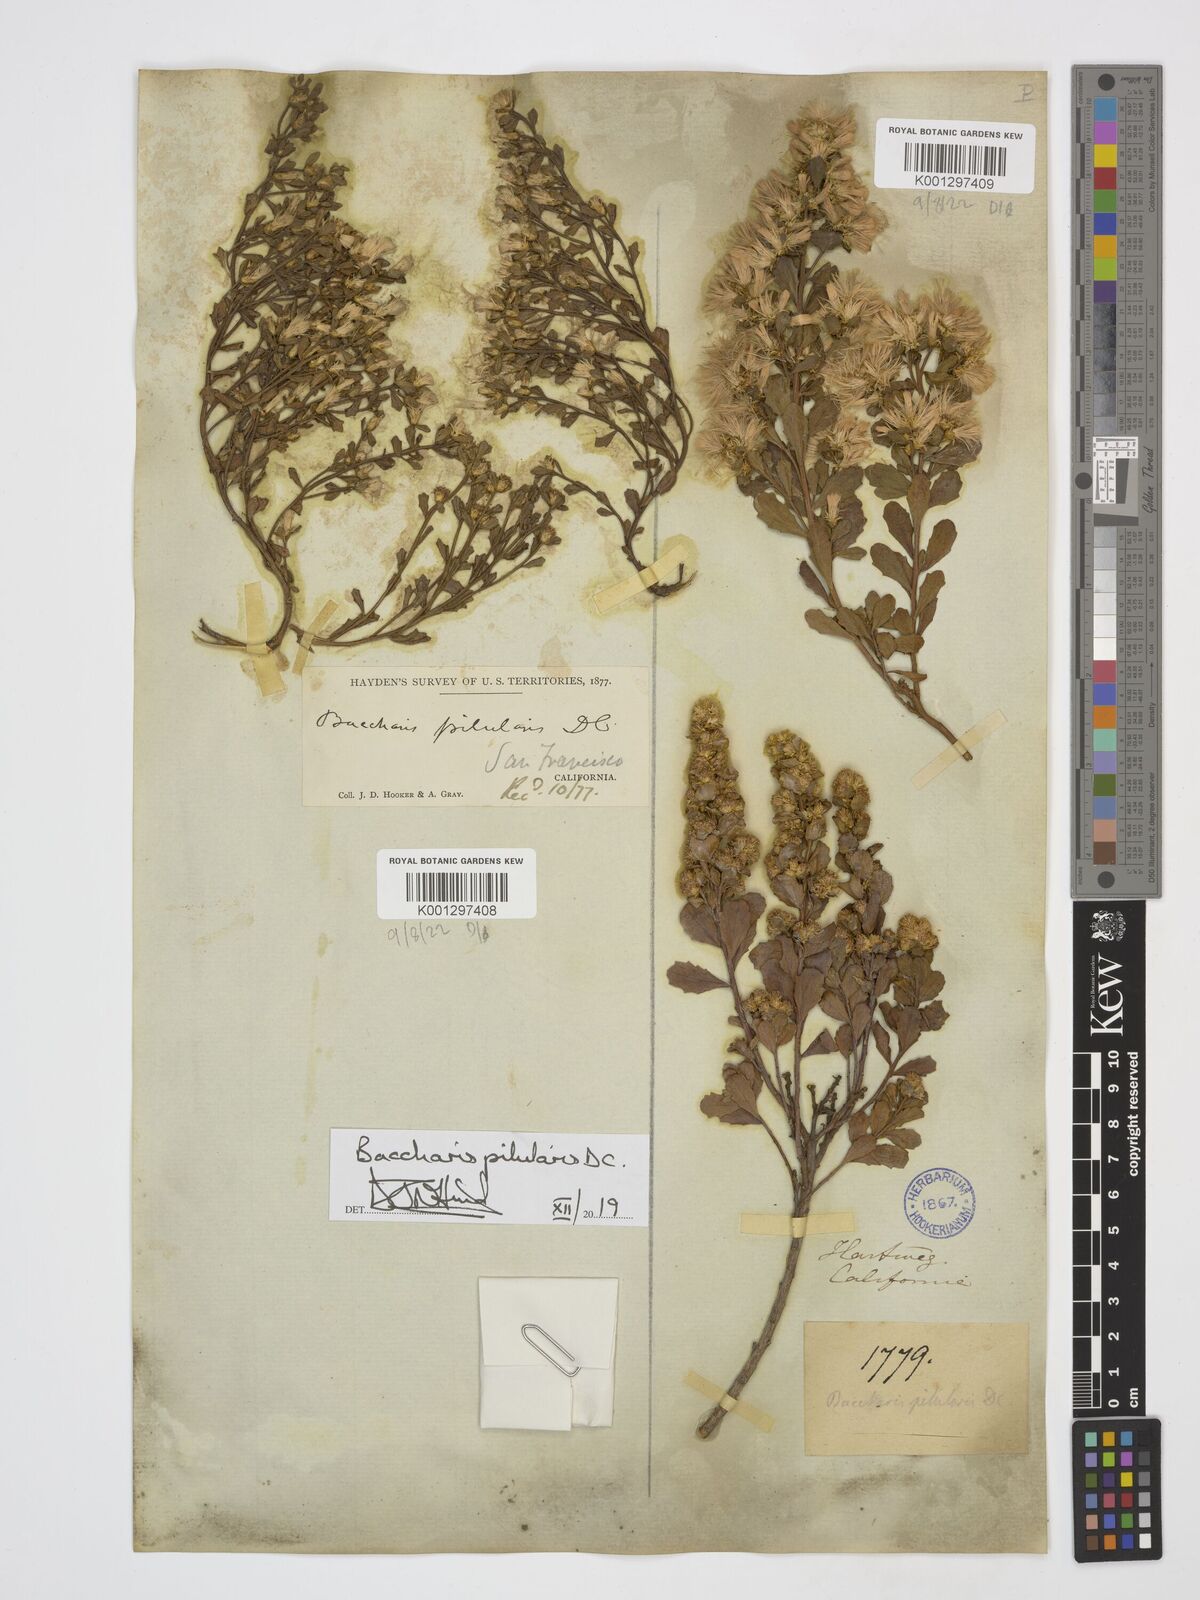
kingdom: Plantae
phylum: Tracheophyta
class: Magnoliopsida
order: Asterales
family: Asteraceae
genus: Baccharis
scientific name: Baccharis pilularis
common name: Coyotebrush
